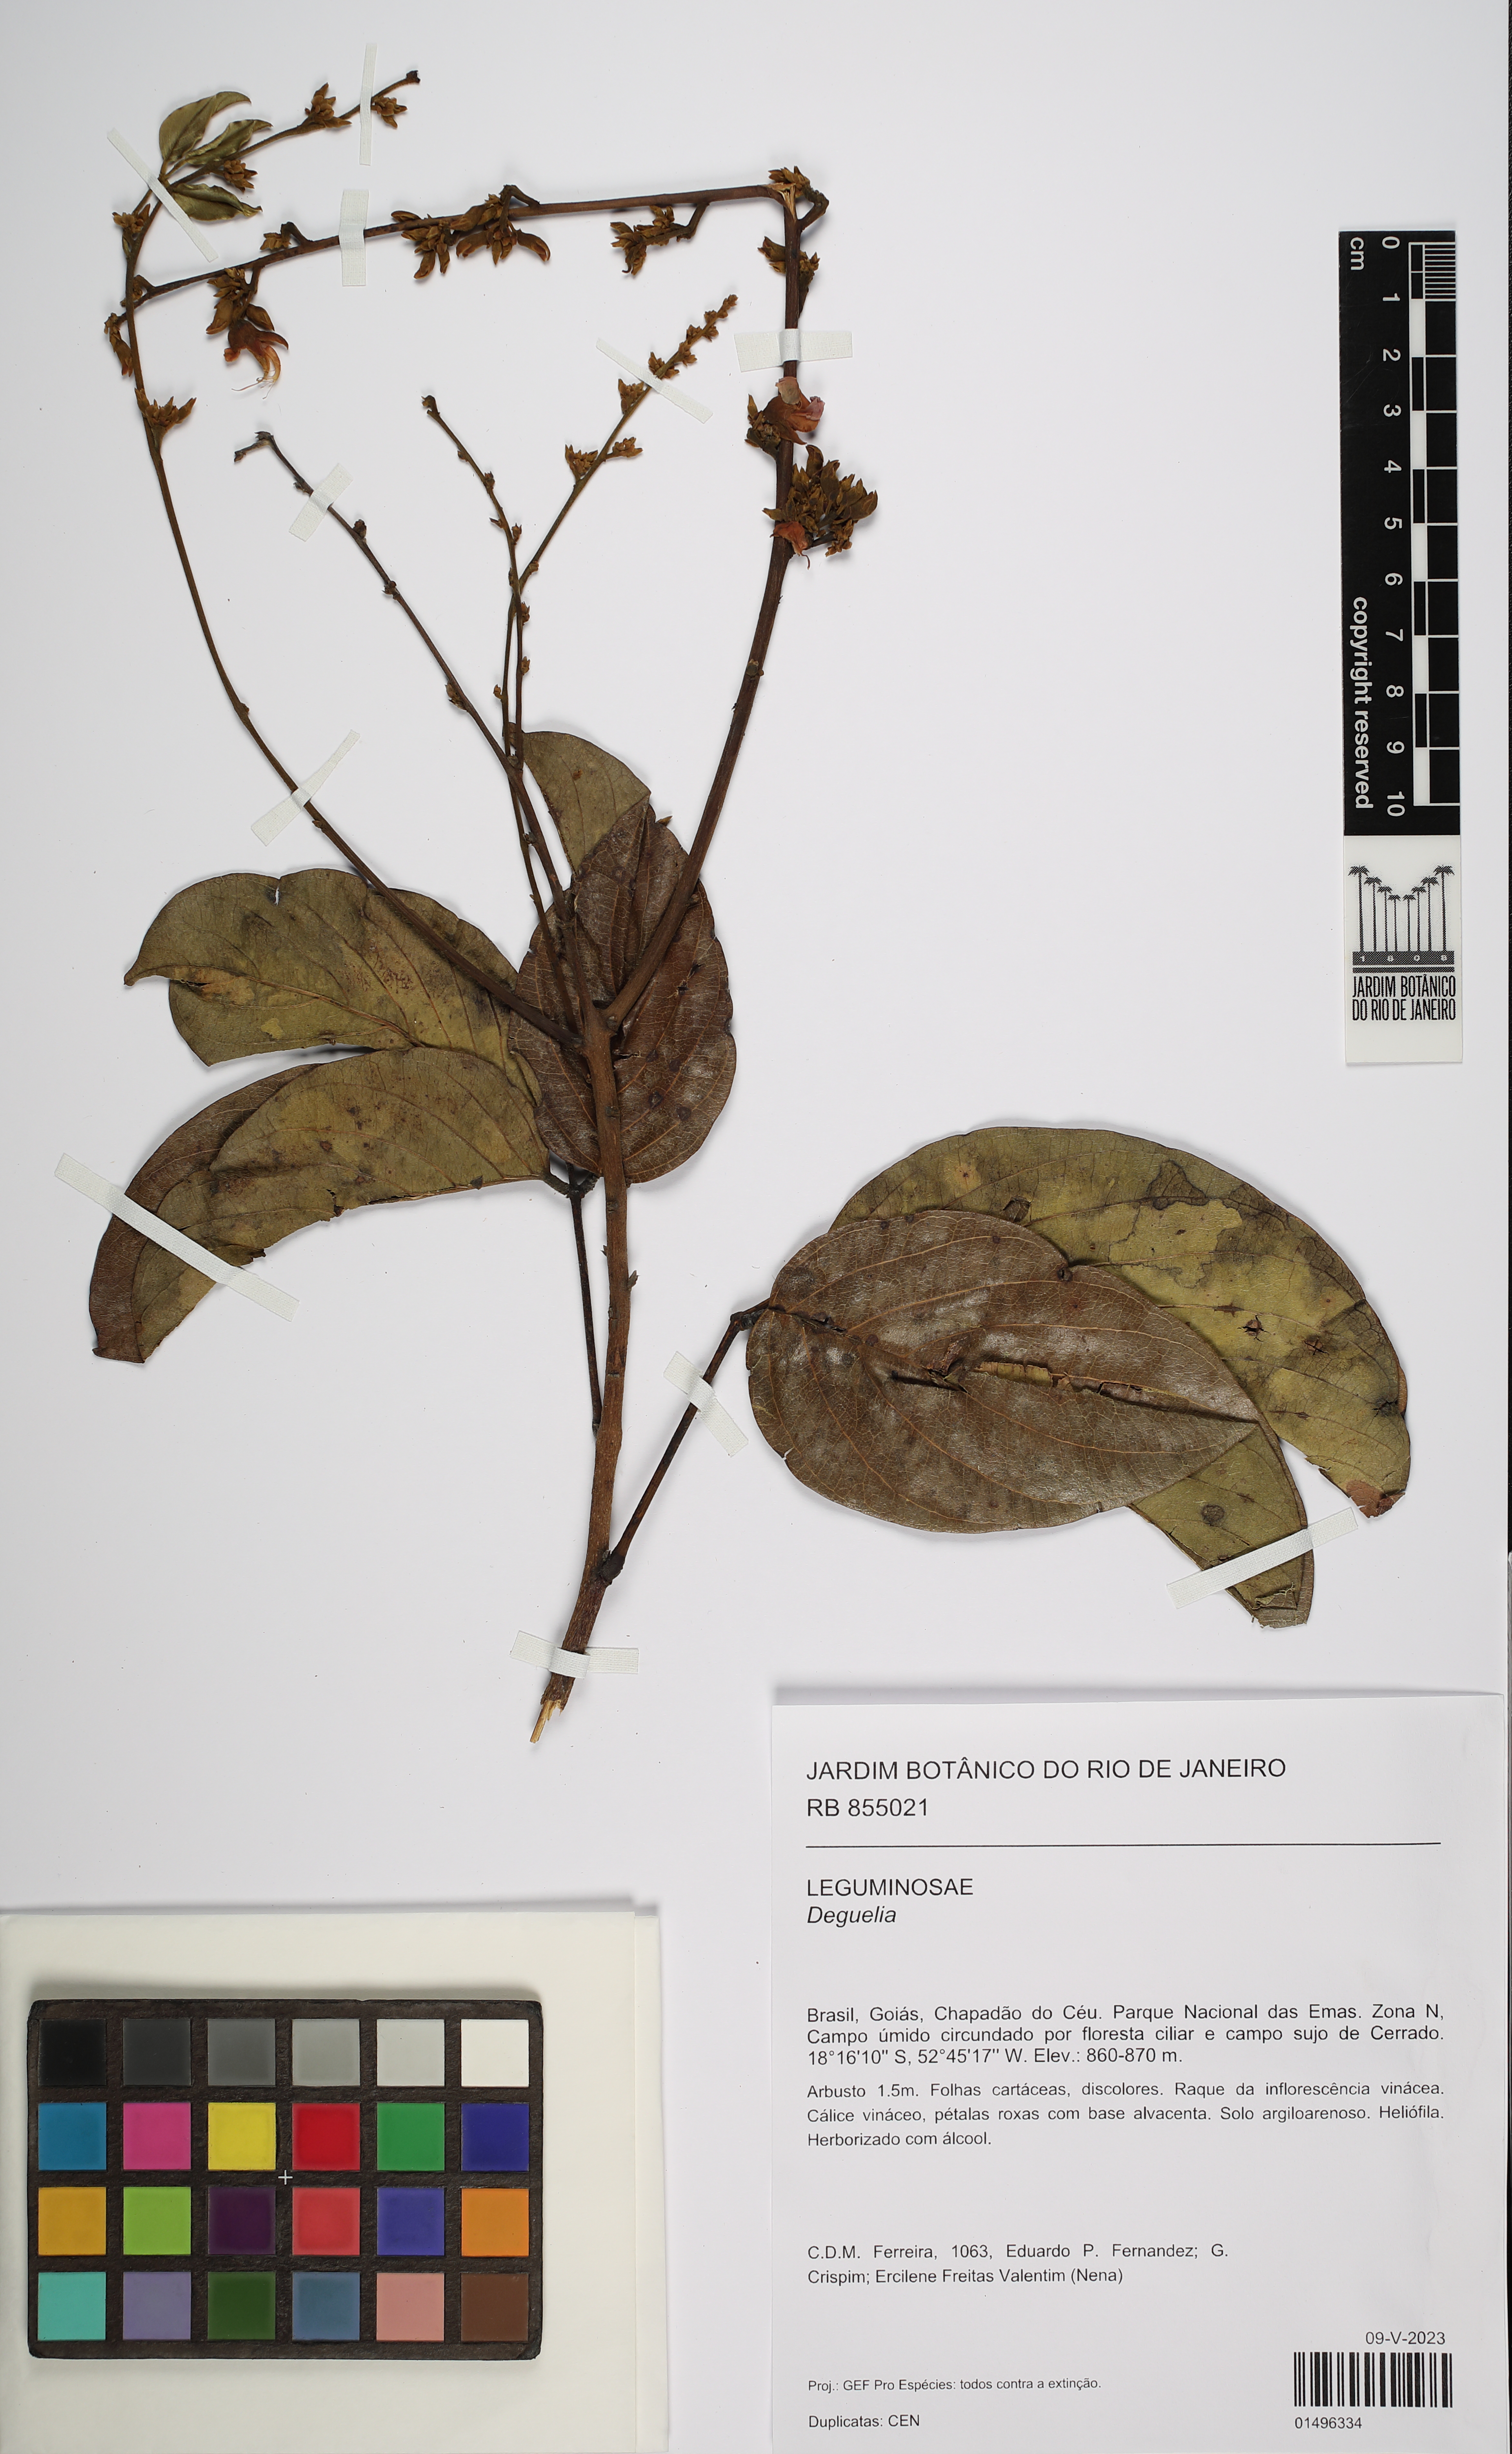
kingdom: Plantae
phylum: Tracheophyta
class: Magnoliopsida
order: Fabales
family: Fabaceae
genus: Deguelia
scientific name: Deguelia
